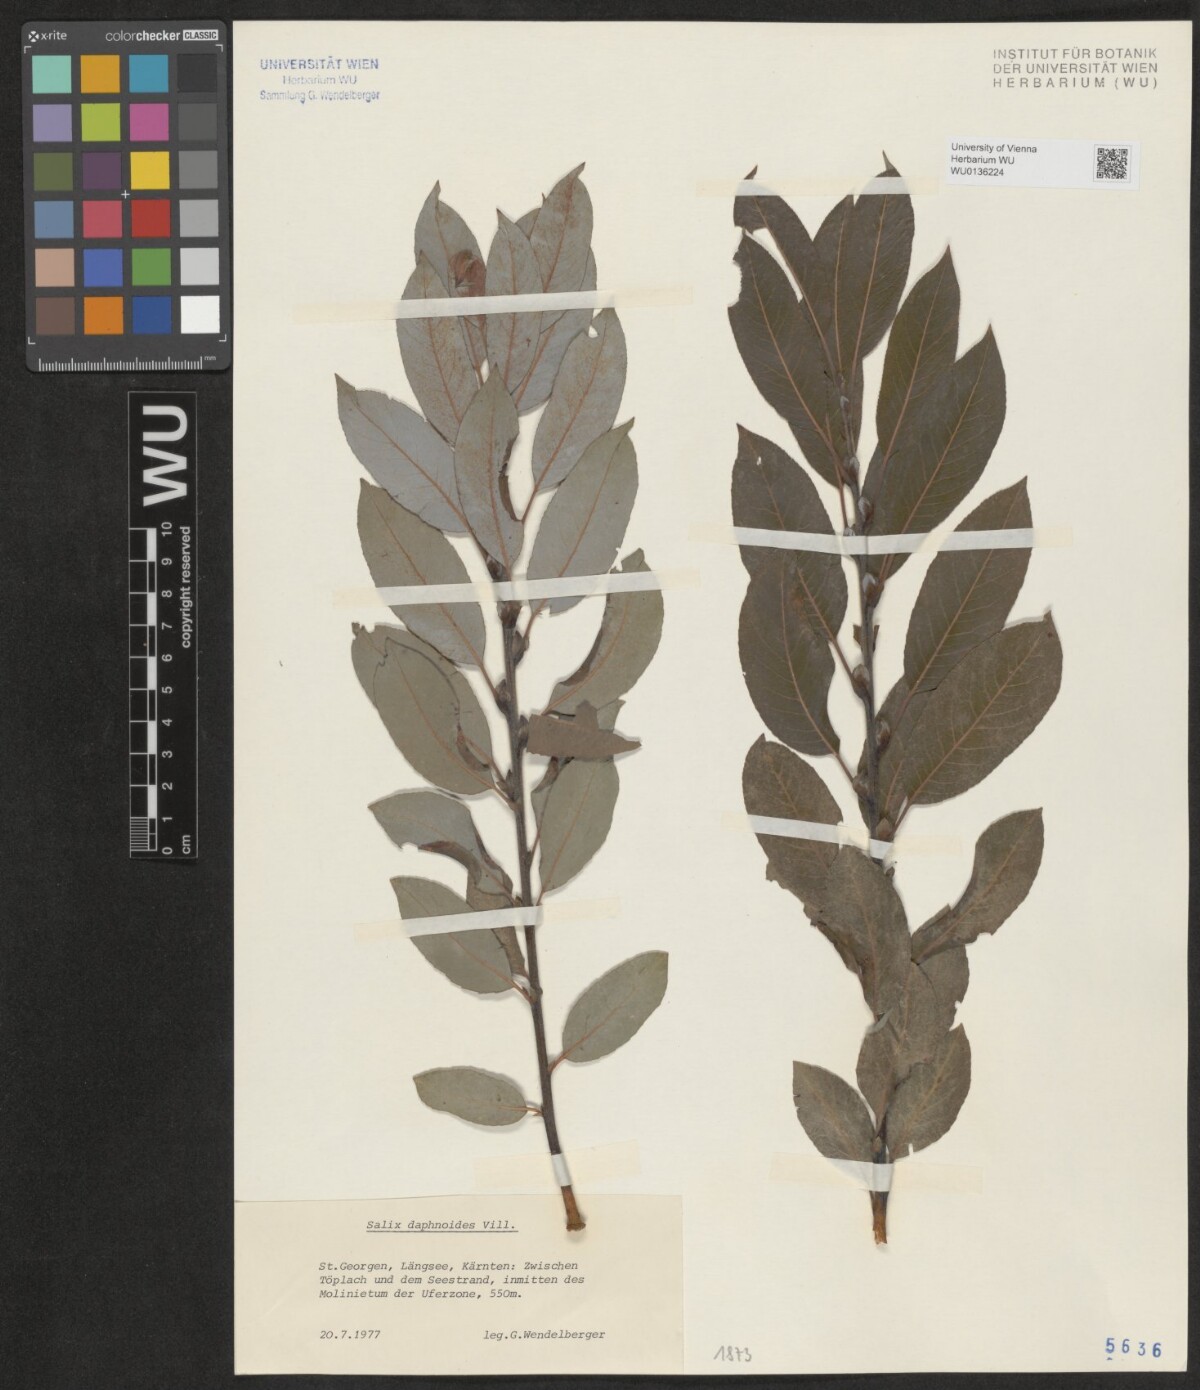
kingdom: Plantae
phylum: Tracheophyta
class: Magnoliopsida
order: Malpighiales
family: Salicaceae
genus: Salix
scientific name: Salix daphnoides
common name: European violet-willow
